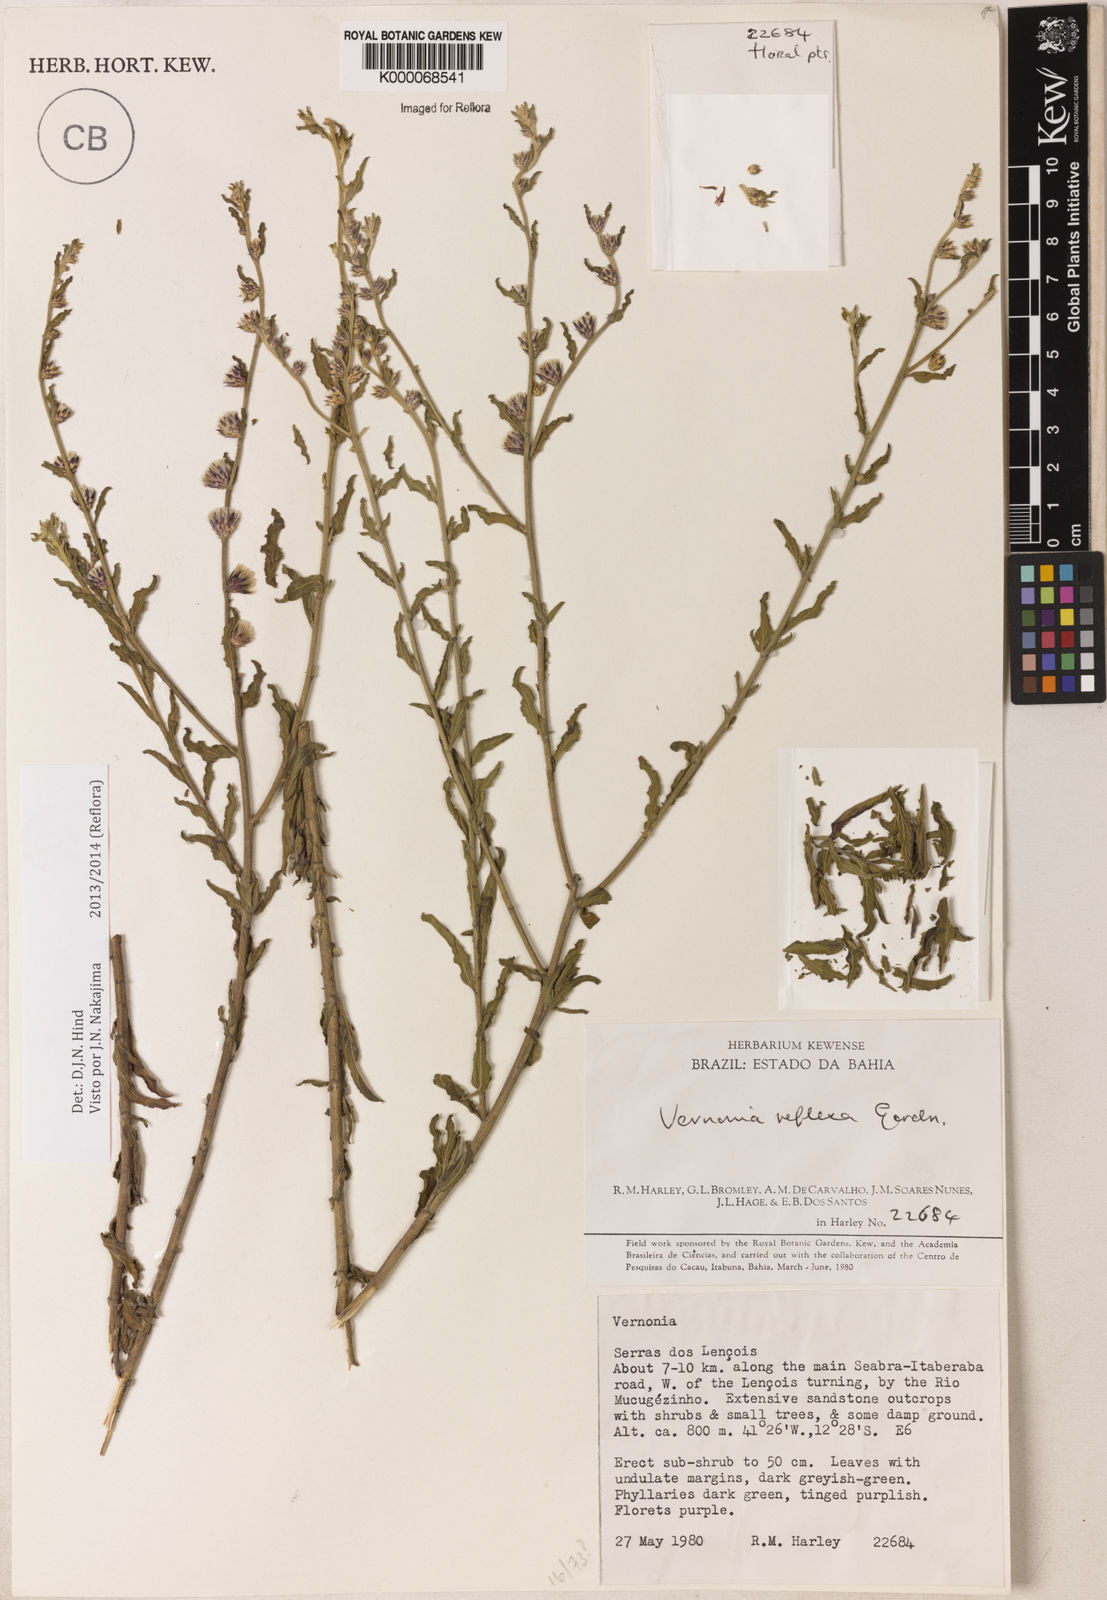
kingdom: Plantae
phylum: Tracheophyta
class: Magnoliopsida
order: Asterales
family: Asteraceae
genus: Lepidaploa
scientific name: Lepidaploa reflexa
